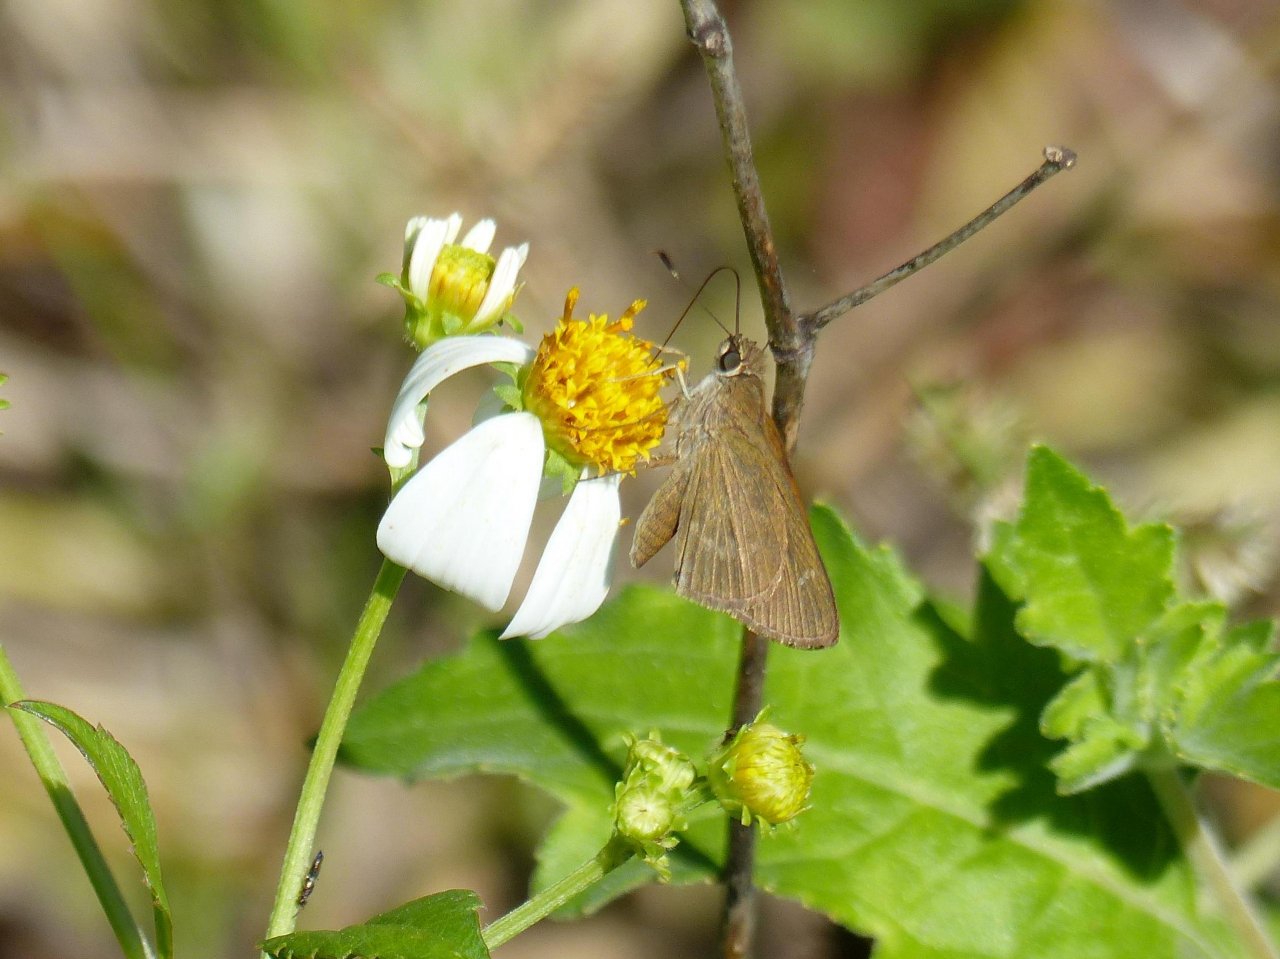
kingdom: Animalia
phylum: Arthropoda
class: Insecta
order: Lepidoptera
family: Hesperiidae
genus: Cymaenes
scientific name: Cymaenes tripunctus
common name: Three-spotted Skipper
